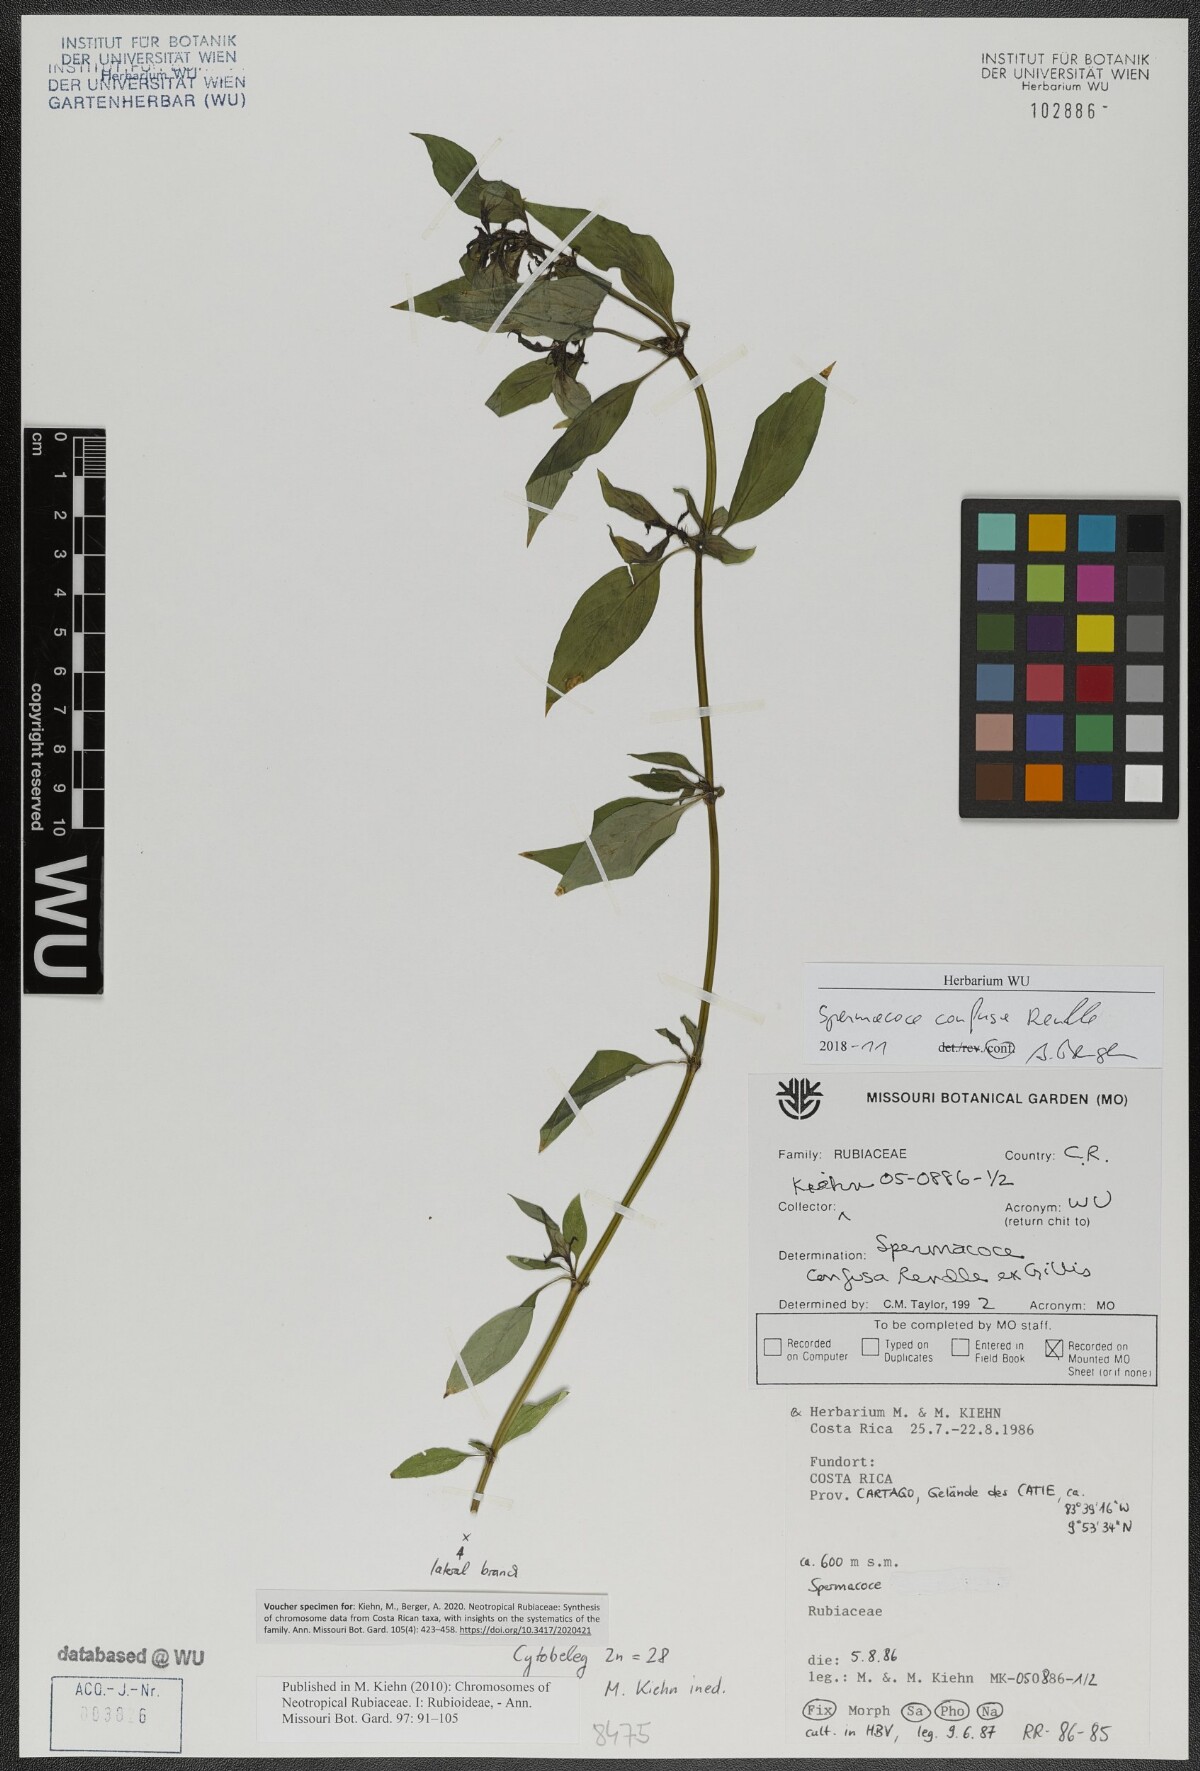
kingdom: Plantae
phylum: Tracheophyta
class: Magnoliopsida
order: Gentianales
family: Rubiaceae
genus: Spermacoce
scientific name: Spermacoce confusa
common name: Iron-grass
